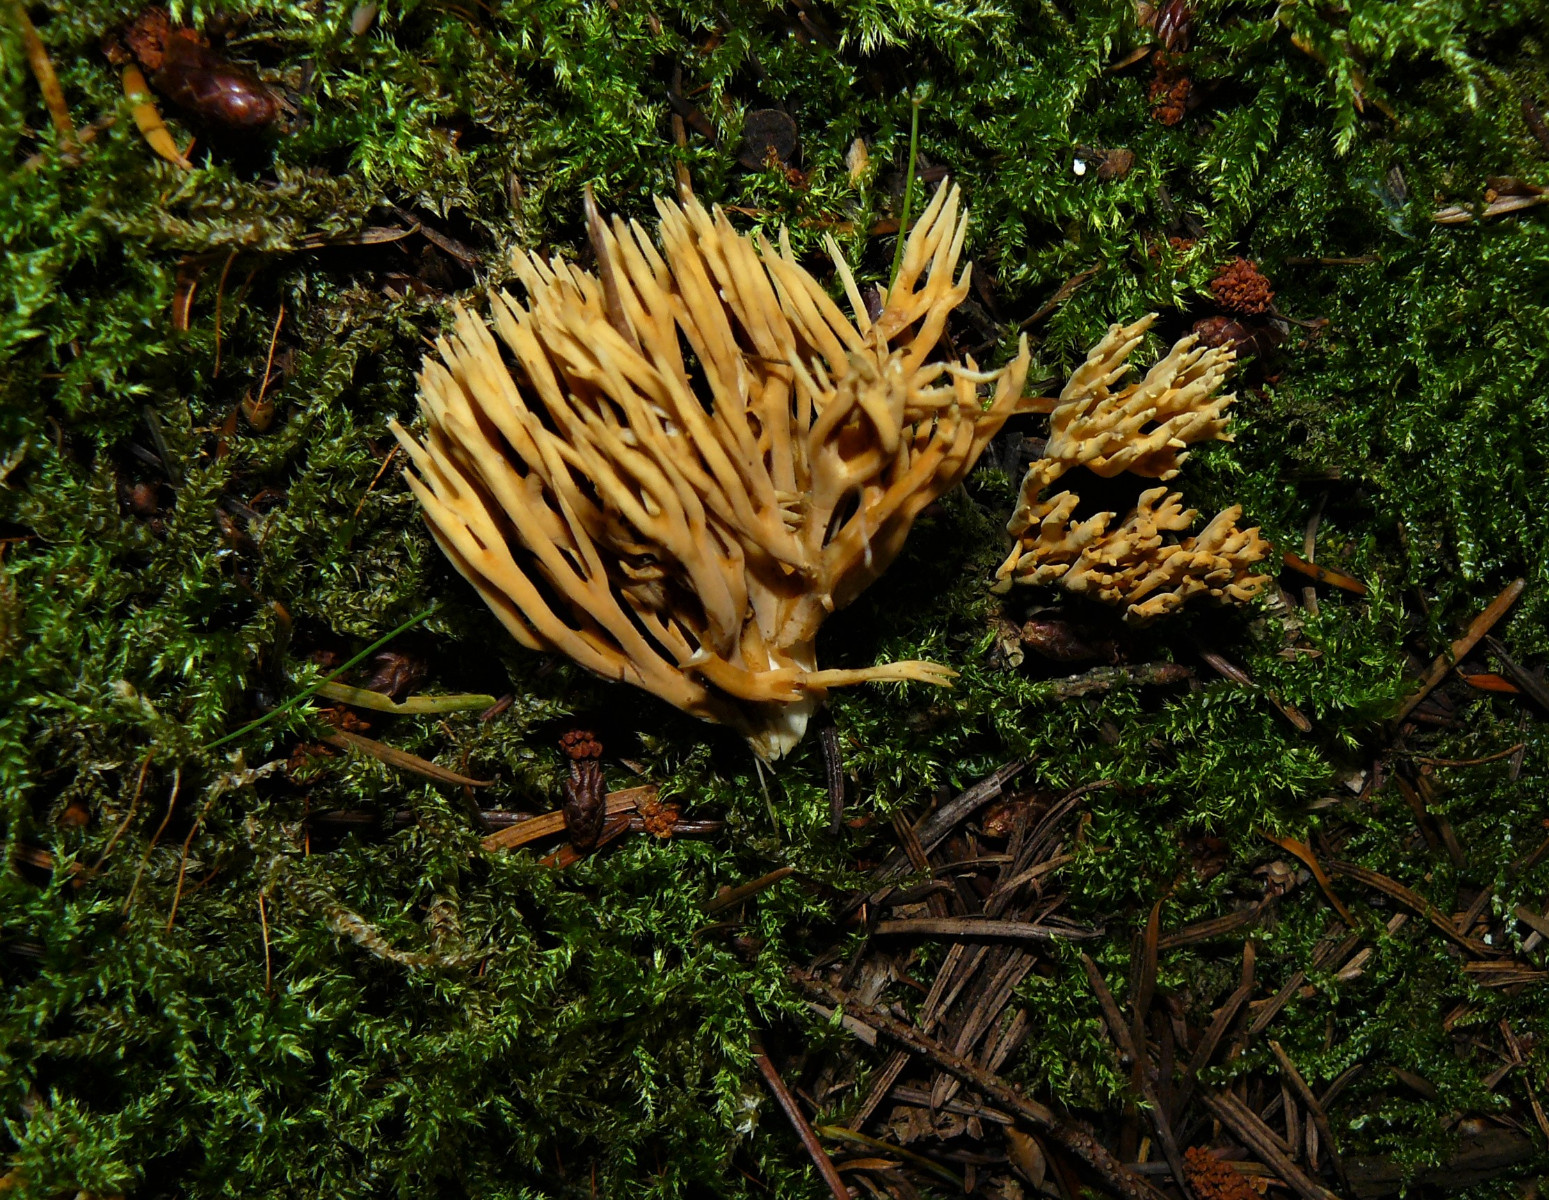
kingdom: Fungi
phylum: Basidiomycota
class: Agaricomycetes
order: Gomphales
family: Gomphaceae
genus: Phaeoclavulina
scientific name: Phaeoclavulina eumorpha
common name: gran-koralsvamp
